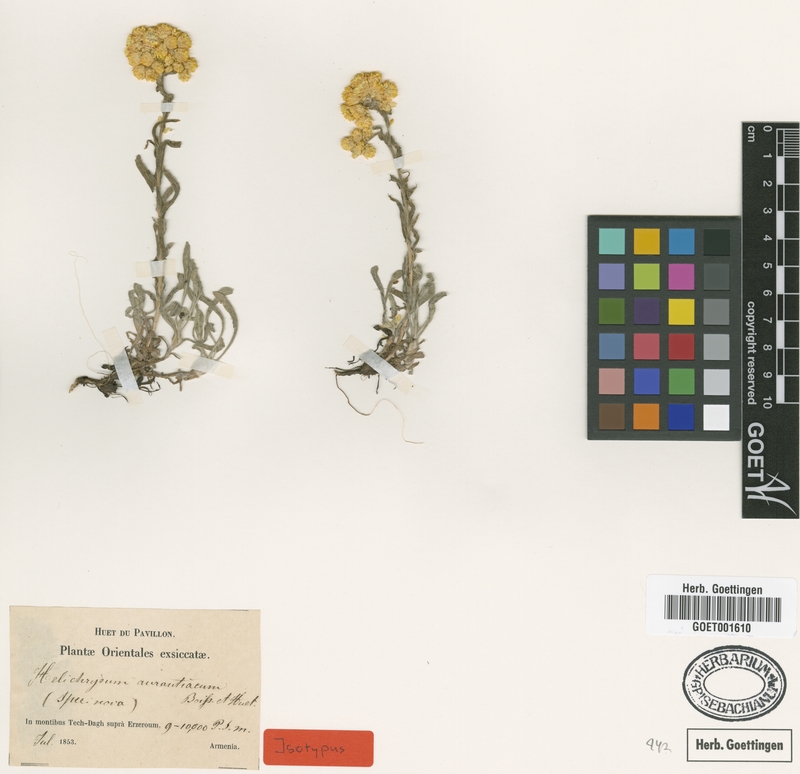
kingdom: Plantae
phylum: Tracheophyta
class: Magnoliopsida
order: Asterales
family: Asteraceae
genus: Helichrysum
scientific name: Helichrysum aurantiacum
